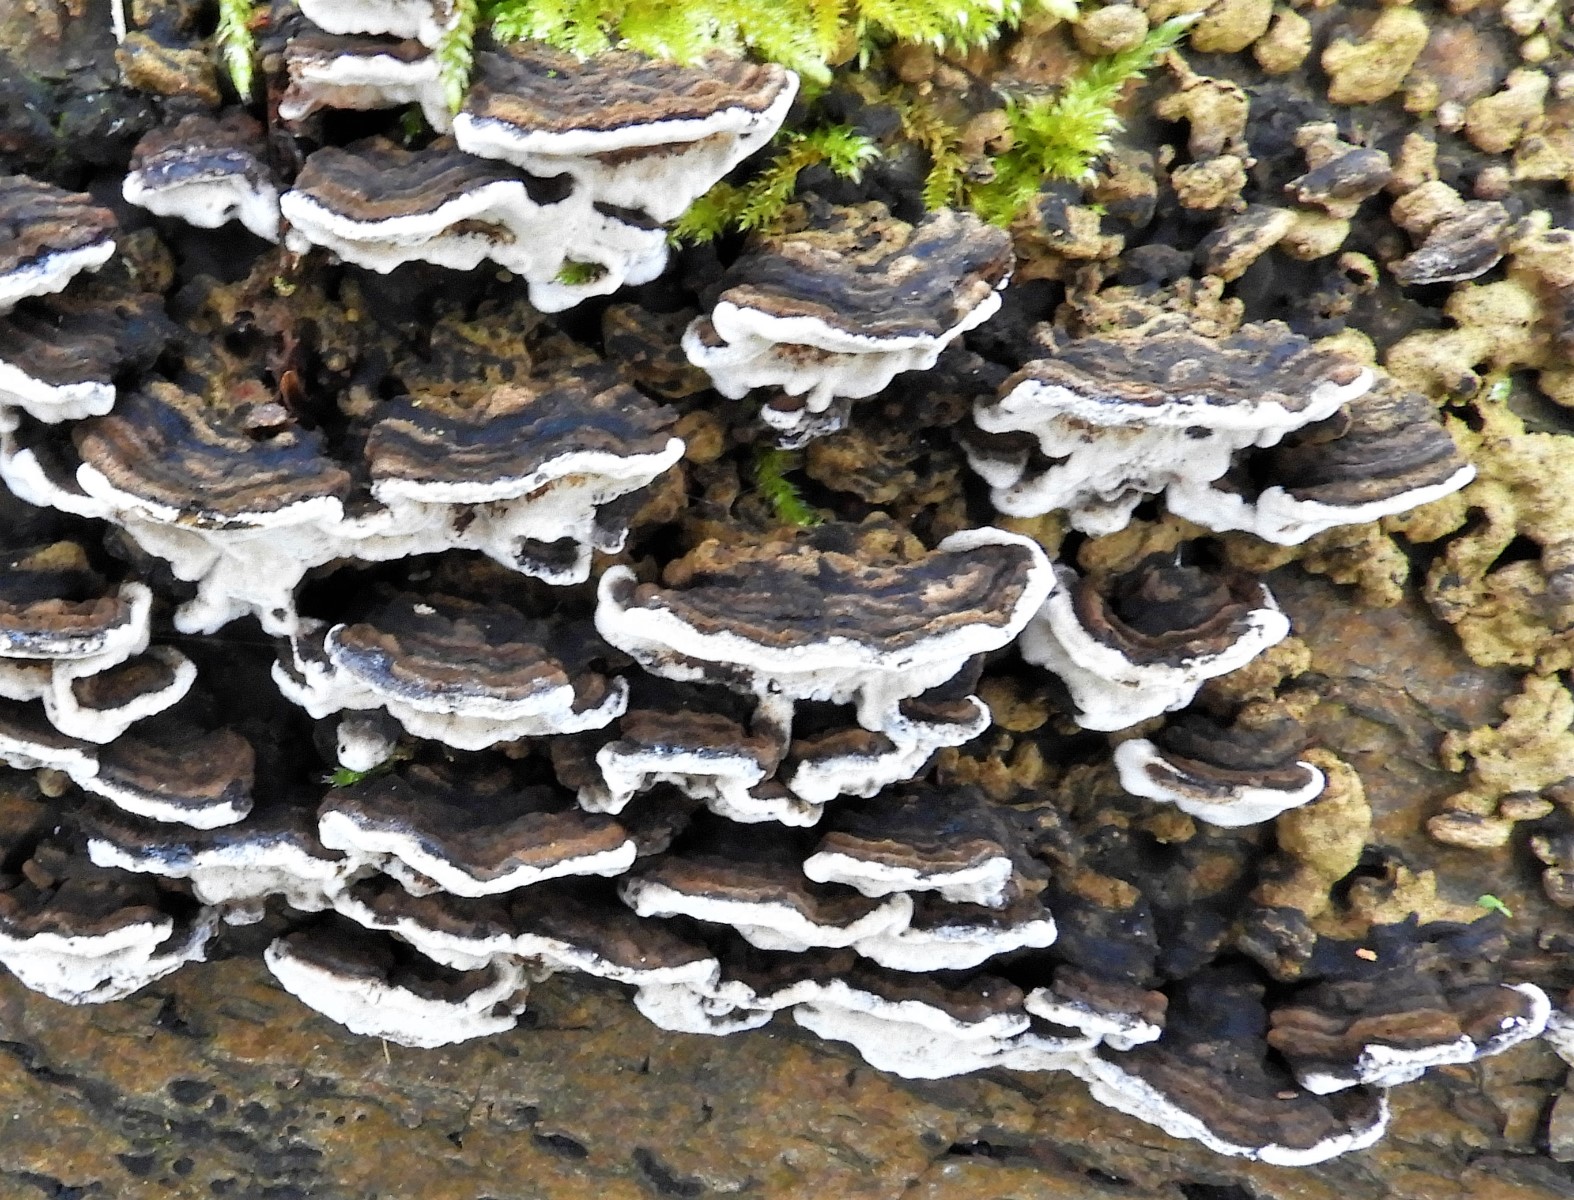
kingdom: Fungi
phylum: Basidiomycota
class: Agaricomycetes
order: Polyporales
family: Polyporaceae
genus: Podofomes
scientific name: Podofomes mollis
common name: blød begporesvamp
